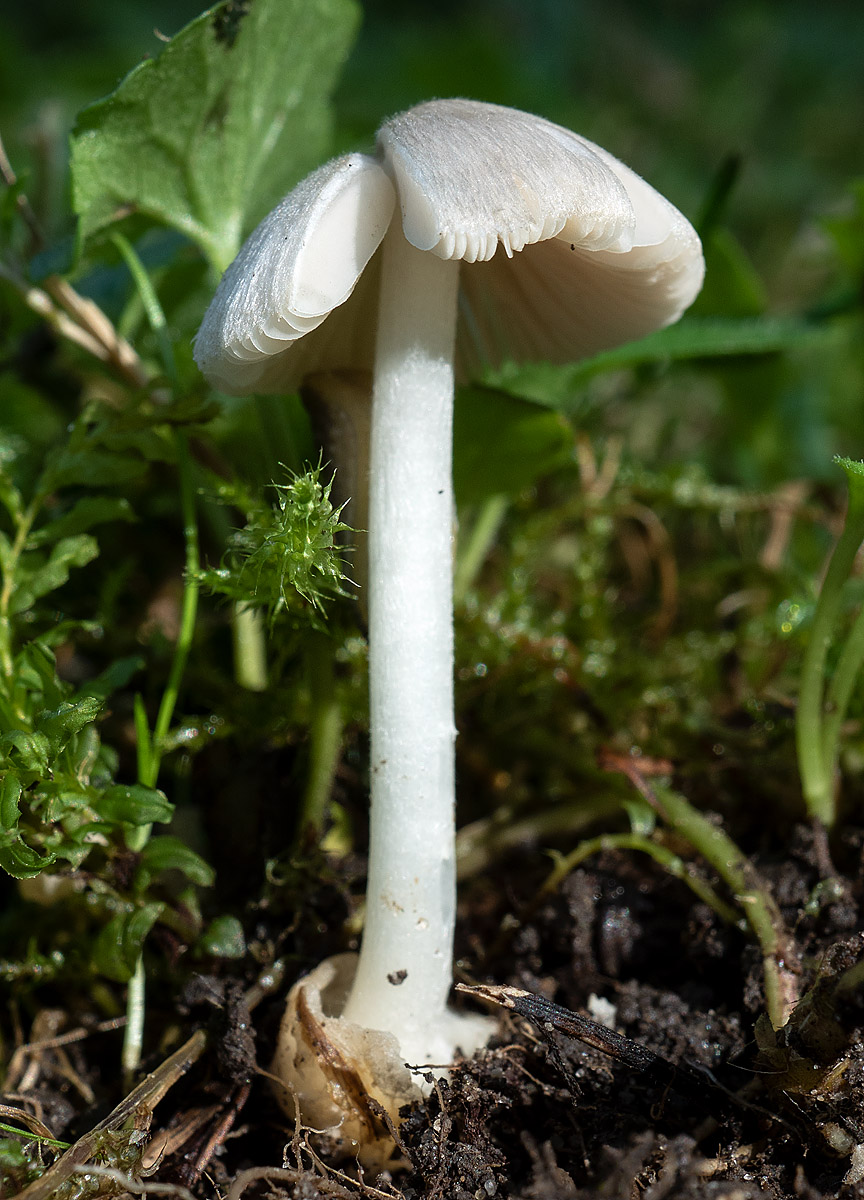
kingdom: Fungi
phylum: Basidiomycota
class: Agaricomycetes
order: Agaricales
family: Pluteaceae
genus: Volvariella
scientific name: Volvariella murinella
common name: musegrå posesvamp
